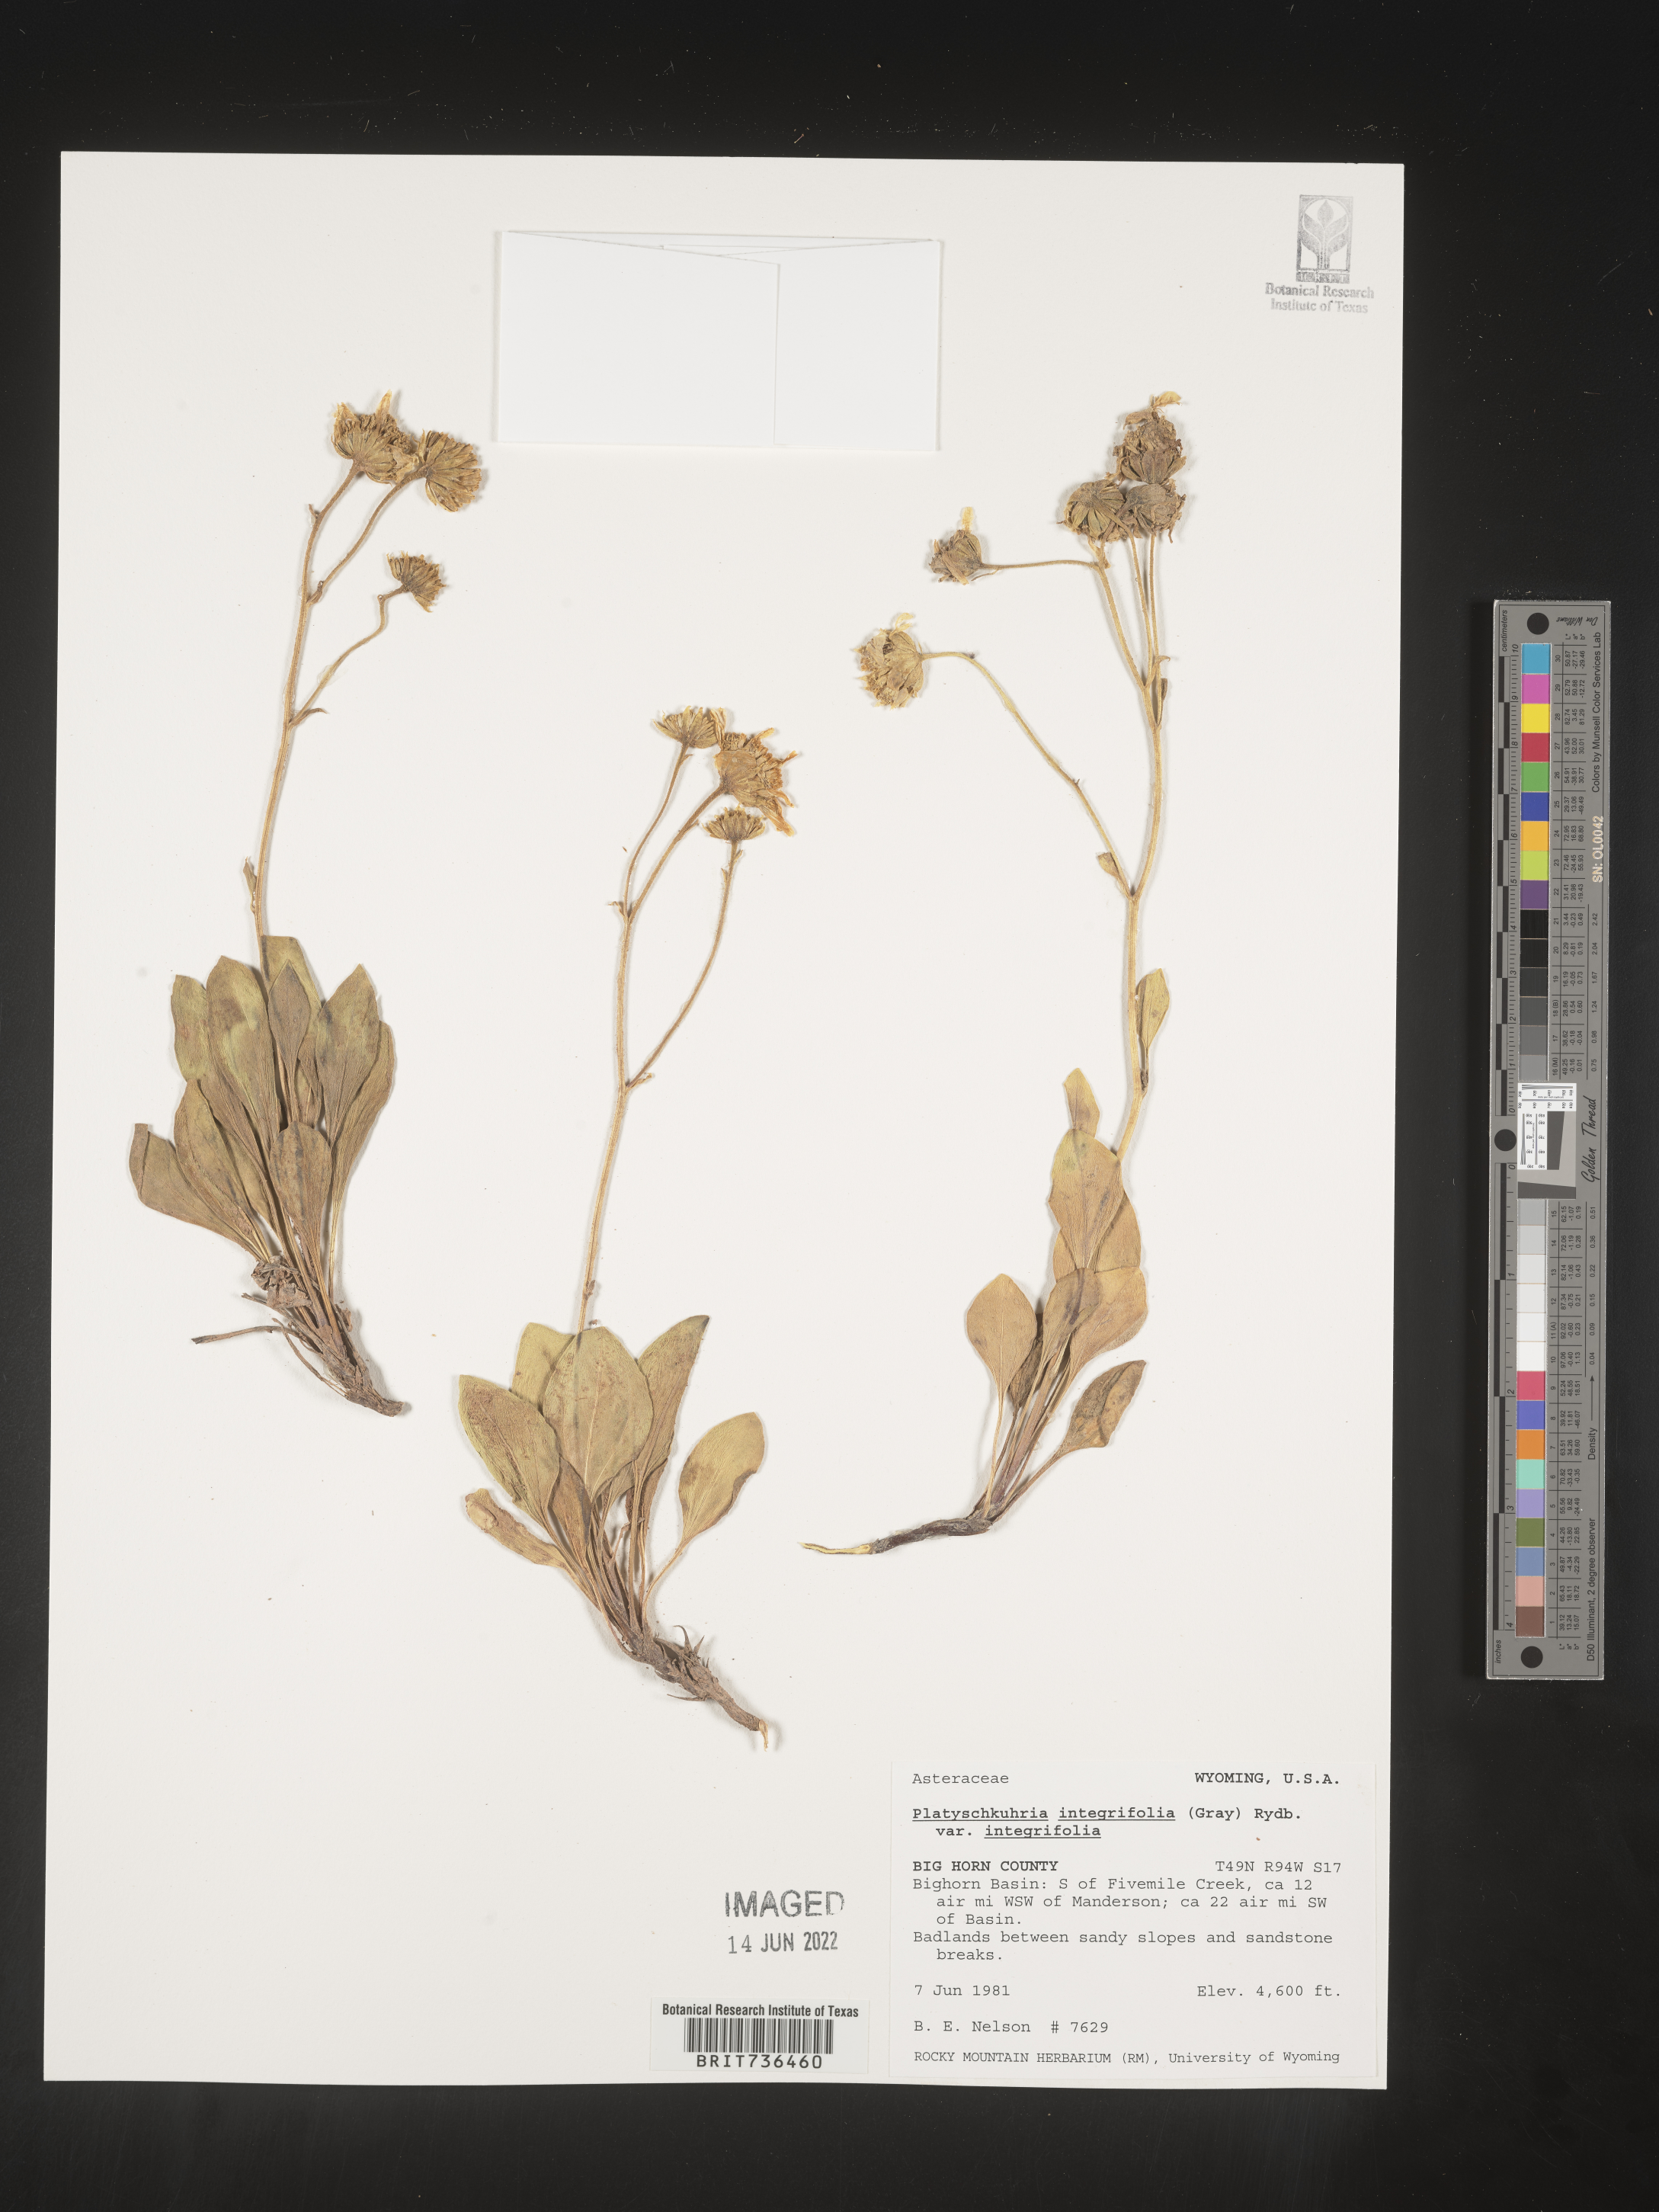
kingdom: Plantae
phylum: Tracheophyta
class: Magnoliopsida
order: Asterales
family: Asteraceae
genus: Platyschkuhria
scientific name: Platyschkuhria
